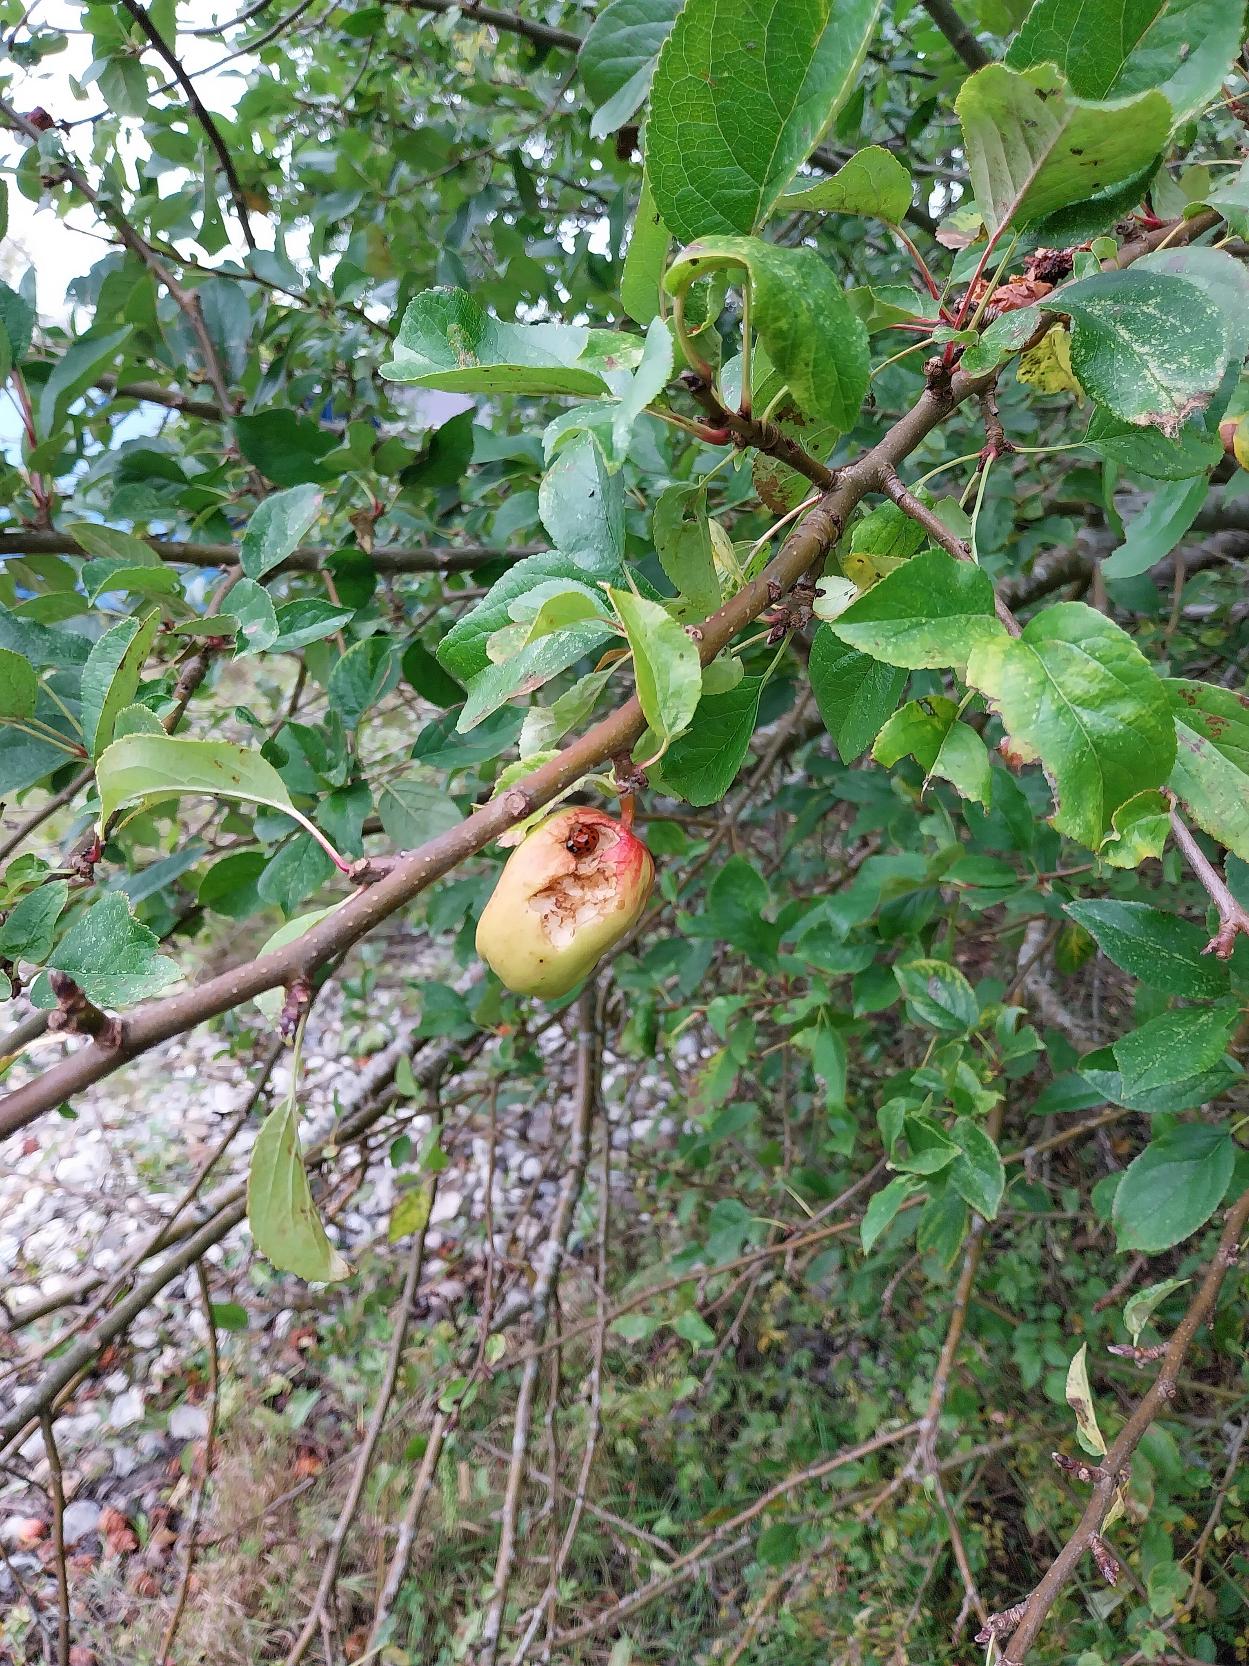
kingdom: Plantae
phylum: Tracheophyta
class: Magnoliopsida
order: Rosales
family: Rosaceae
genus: Malus
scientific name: Malus domestica
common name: Sød-æble
